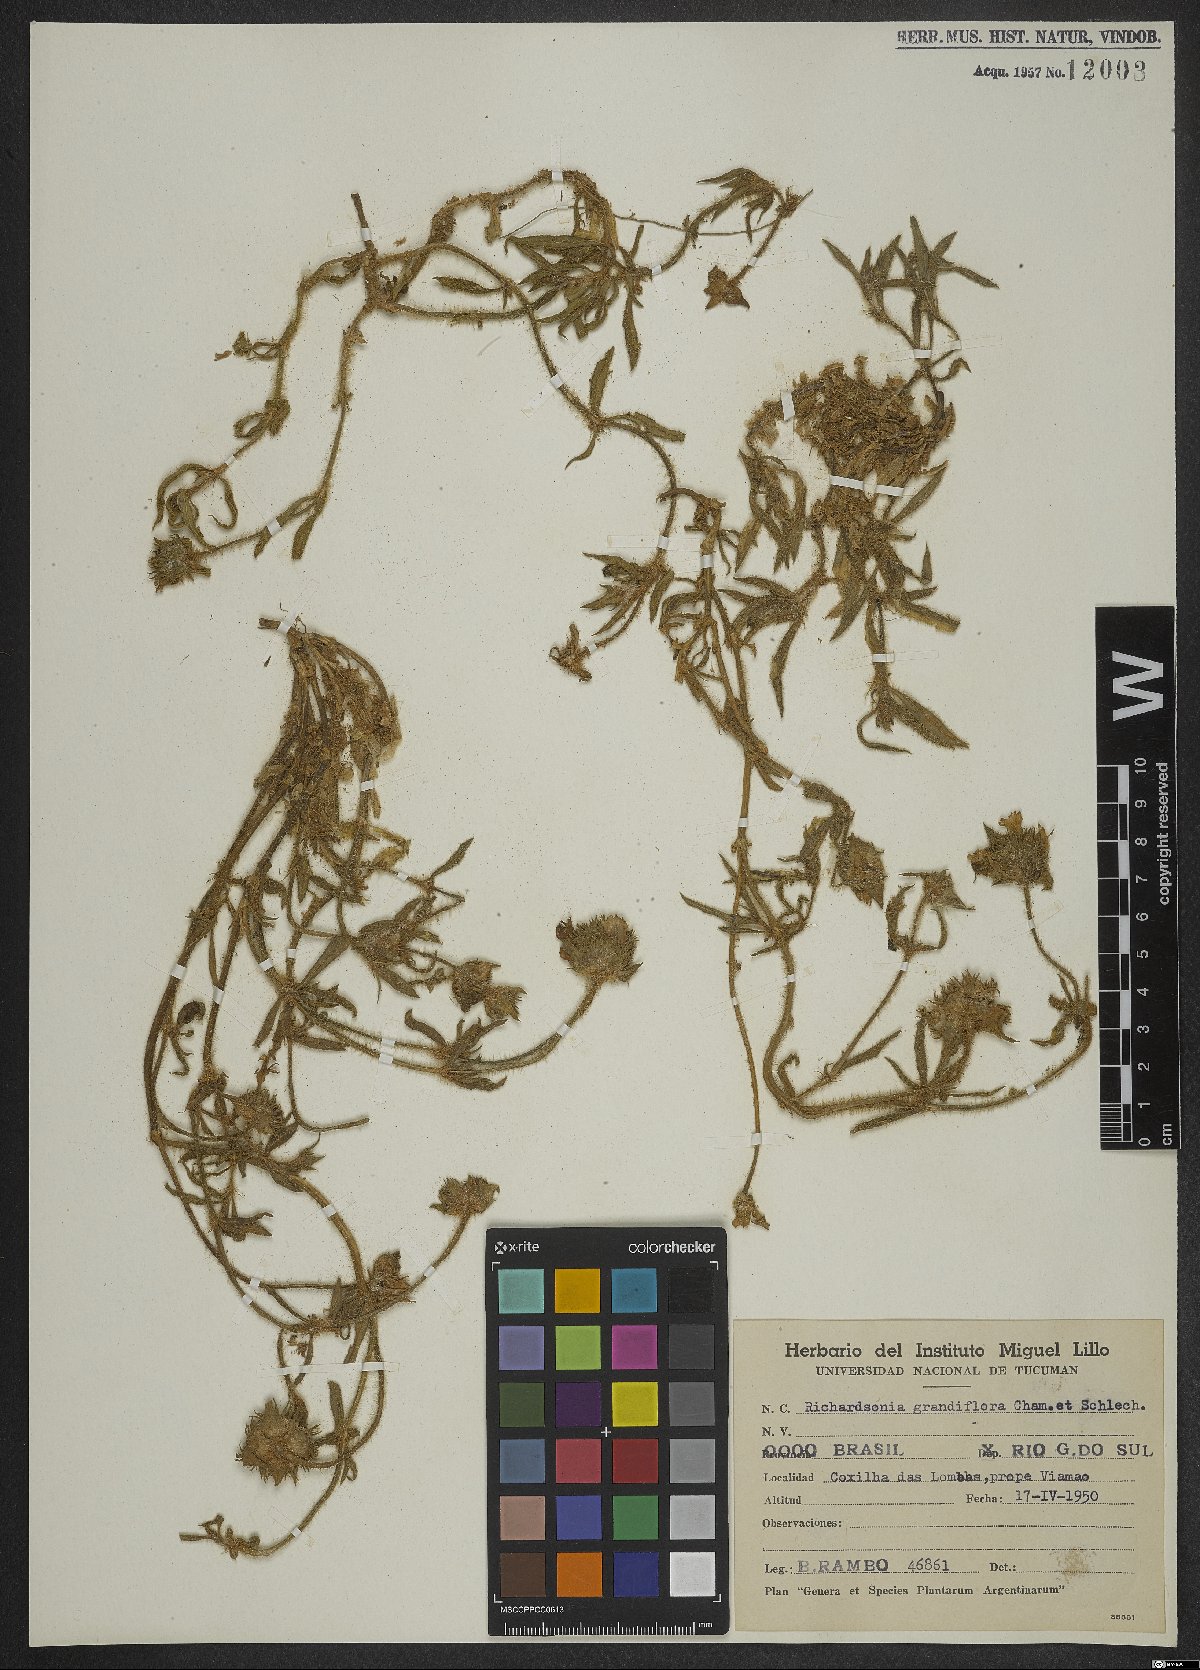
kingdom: Plantae
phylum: Tracheophyta
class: Magnoliopsida
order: Gentianales
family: Rubiaceae
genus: Richardia
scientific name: Richardia grandiflora
